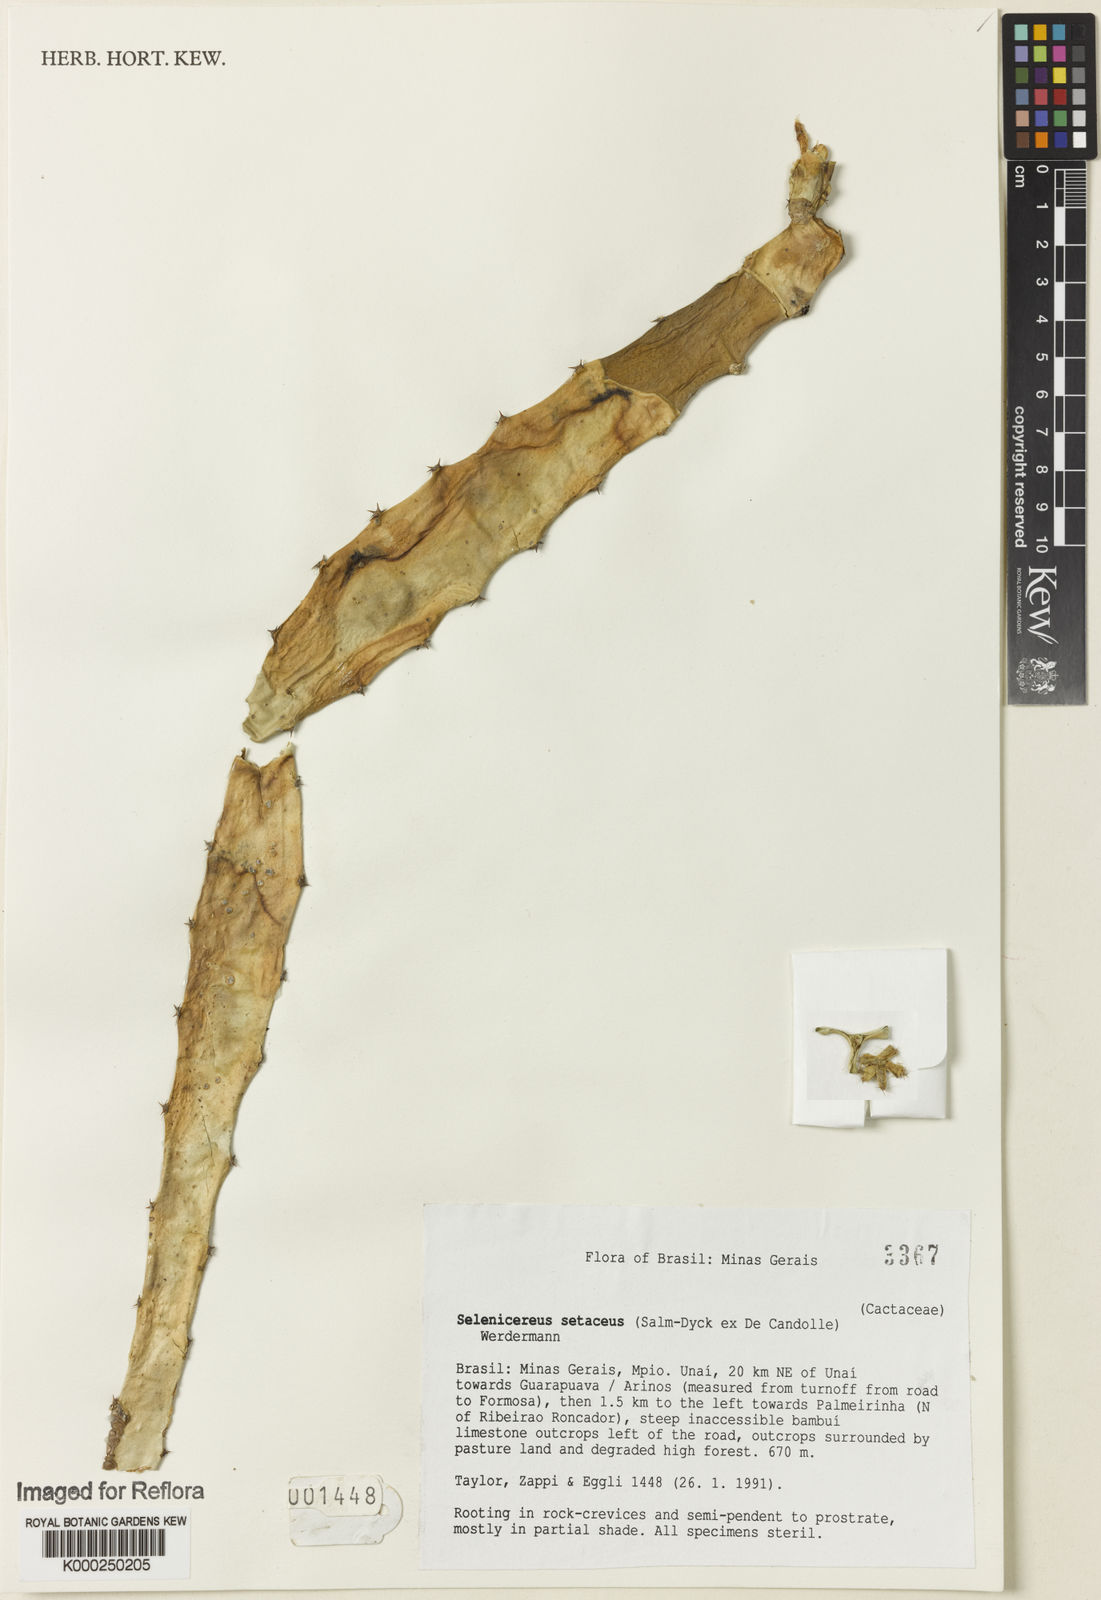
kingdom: Plantae
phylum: Tracheophyta
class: Magnoliopsida
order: Caryophyllales
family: Cactaceae
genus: Selenicereus
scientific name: Selenicereus
